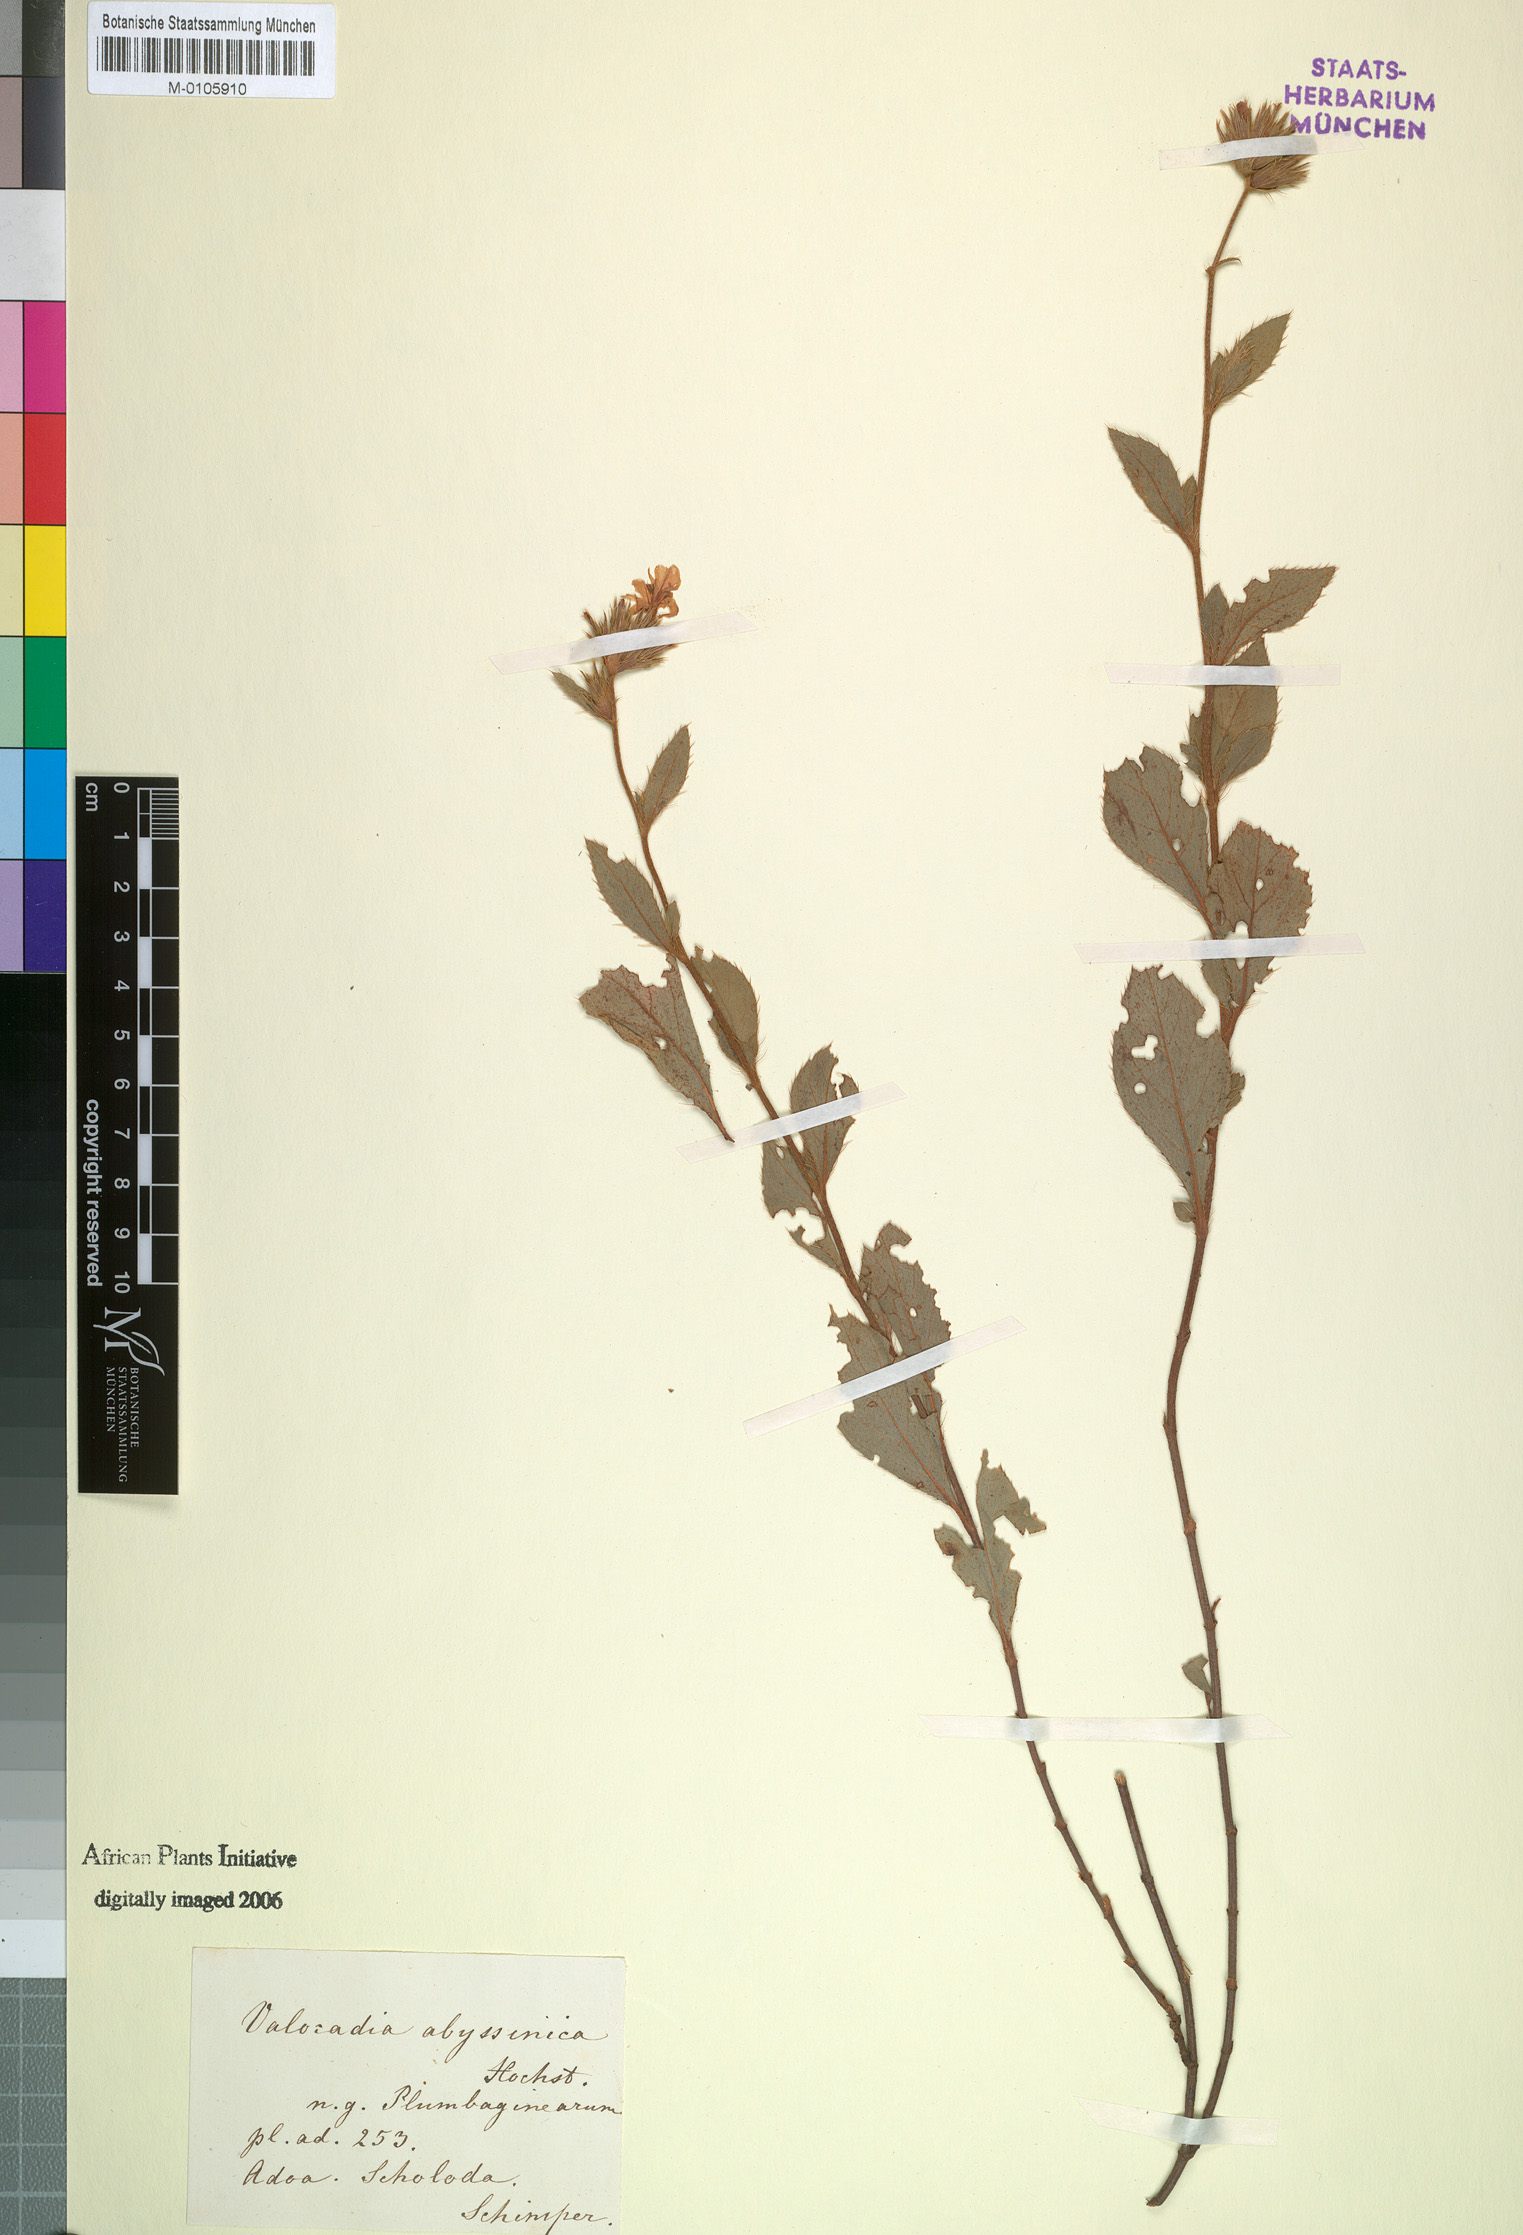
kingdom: Plantae
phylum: Tracheophyta
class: Magnoliopsida
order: Caryophyllales
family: Plumbaginaceae
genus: Ceratostigma
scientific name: Ceratostigma abyssinicum
